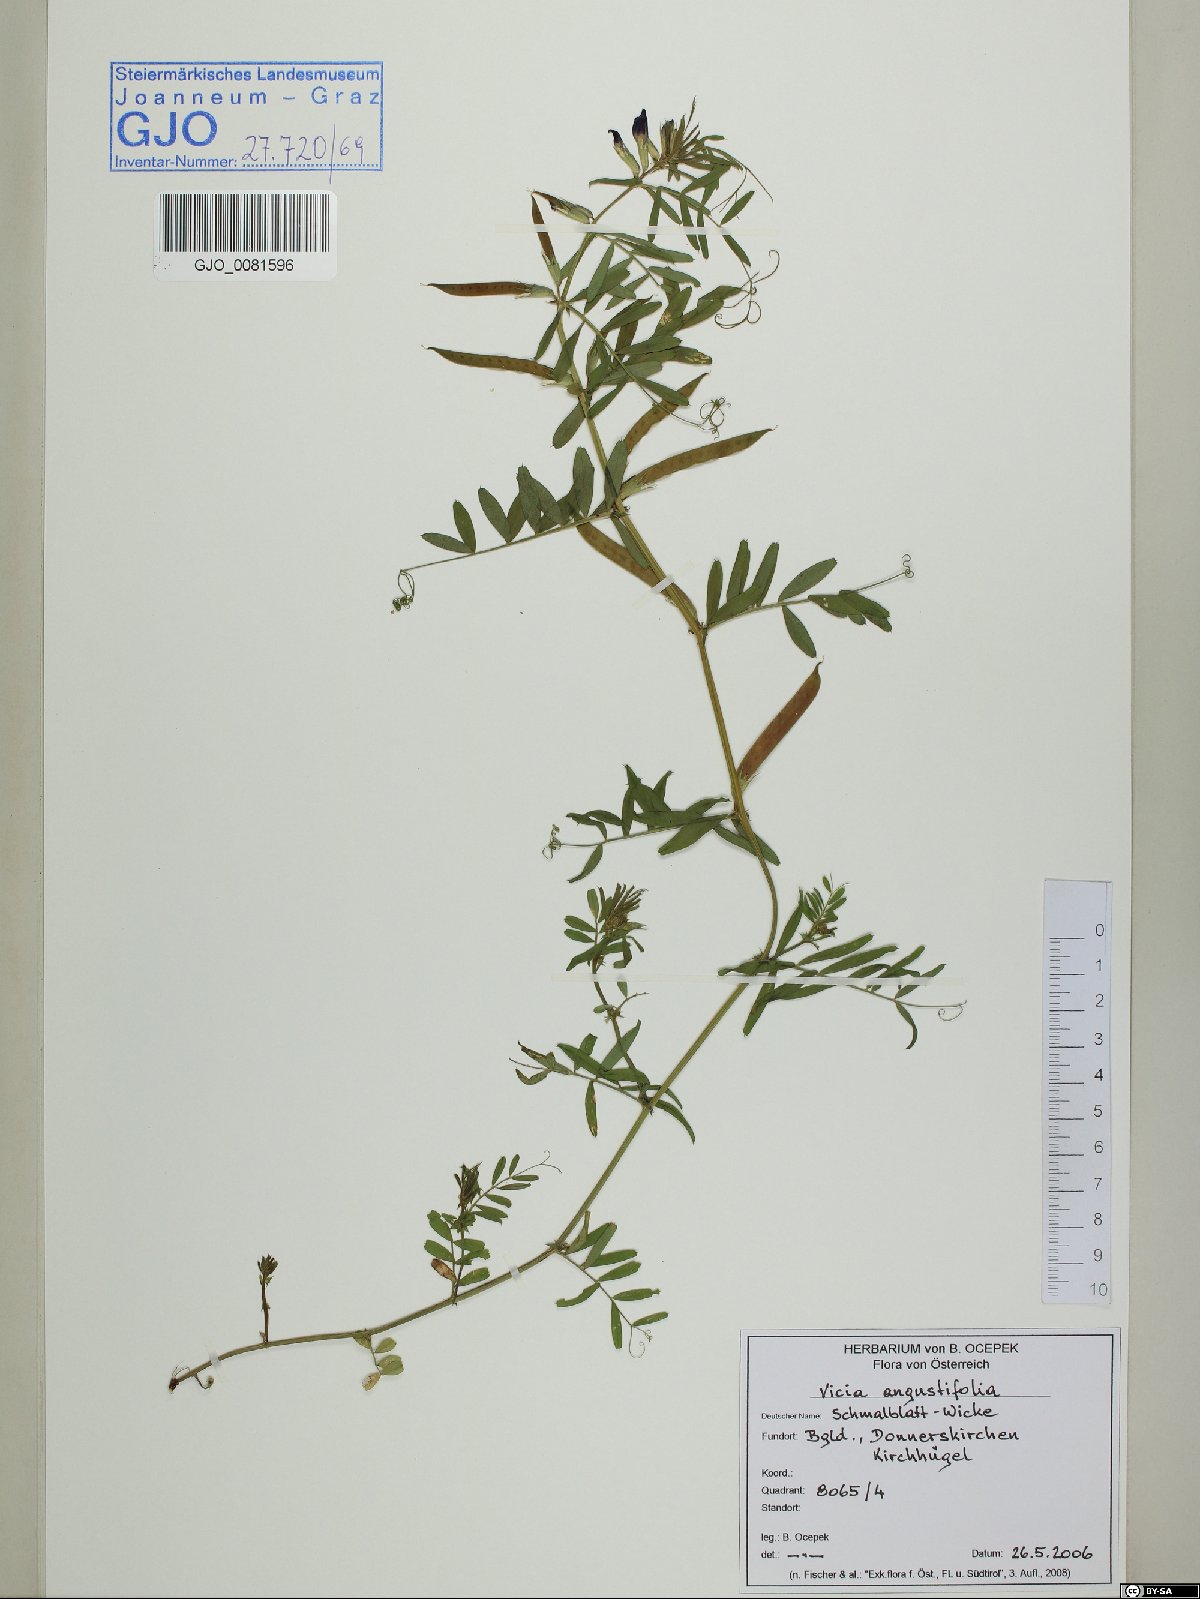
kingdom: Plantae
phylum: Tracheophyta
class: Magnoliopsida
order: Fabales
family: Fabaceae
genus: Vicia
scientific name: Vicia sativa
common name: Garden vetch
